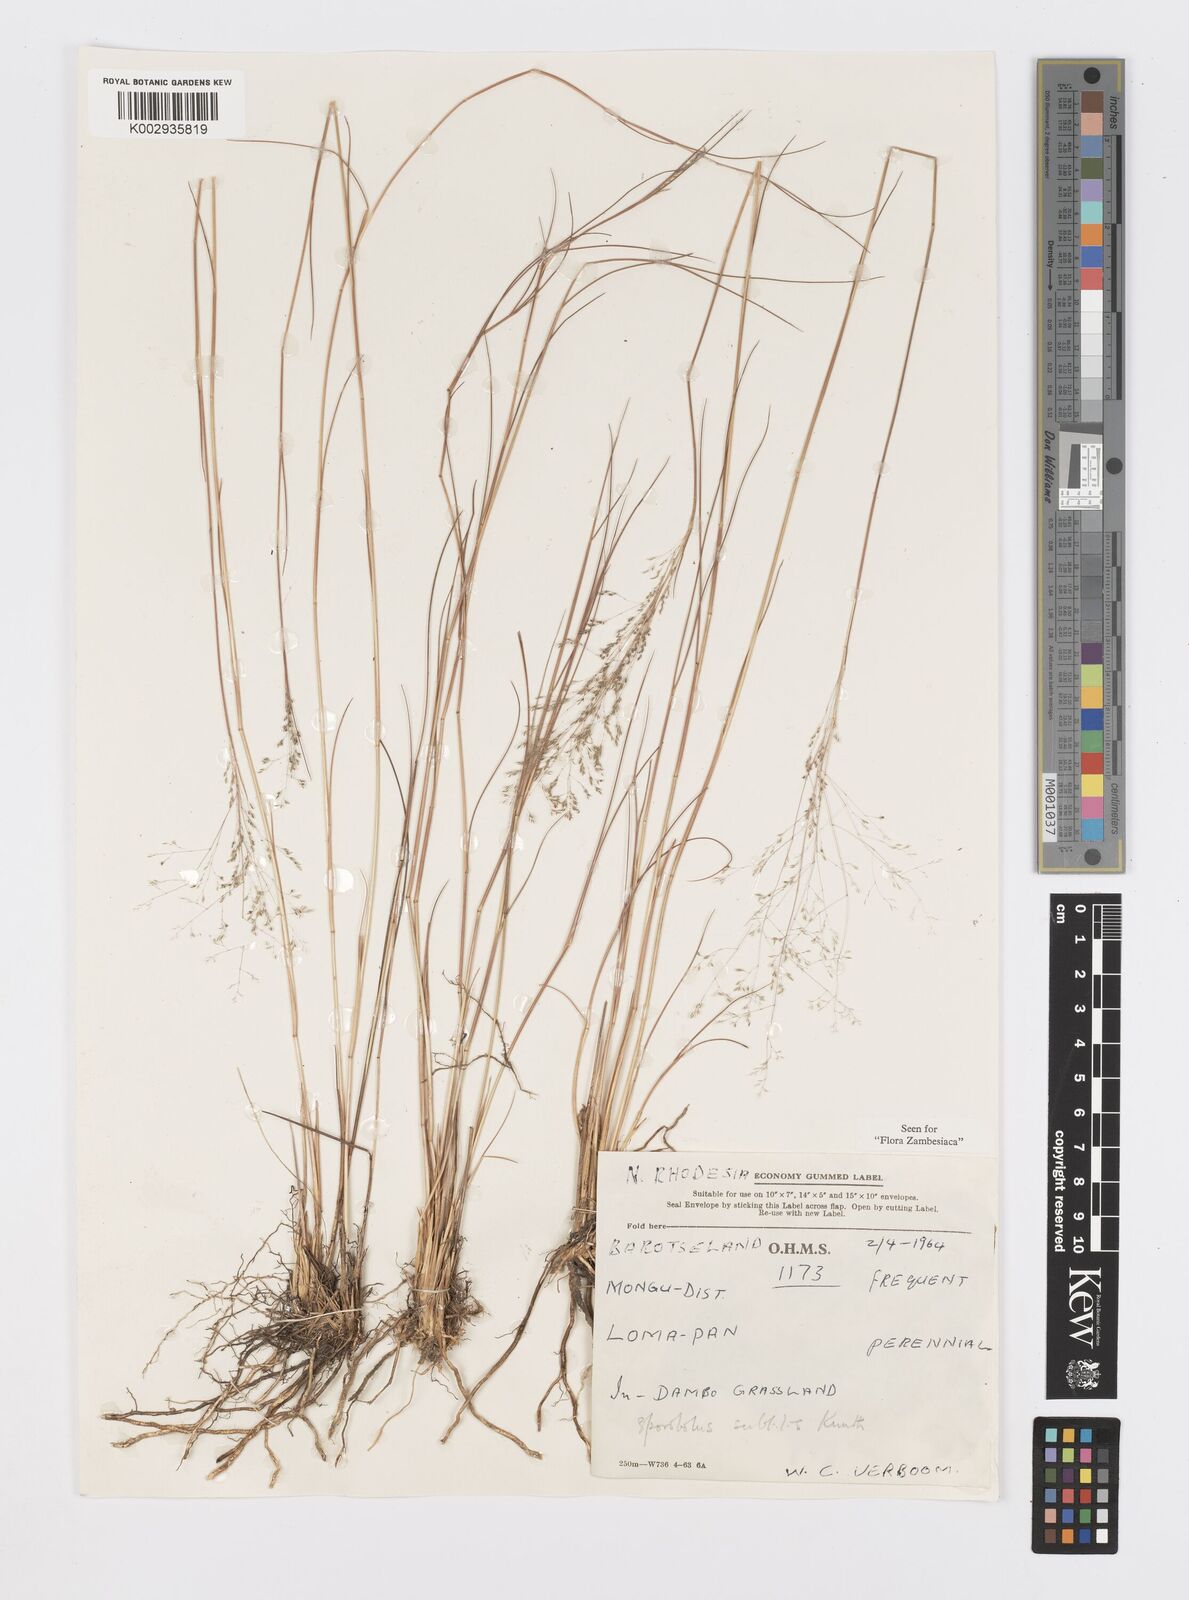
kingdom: Plantae
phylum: Tracheophyta
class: Liliopsida
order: Poales
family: Poaceae
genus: Sporobolus
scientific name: Sporobolus subtilis
